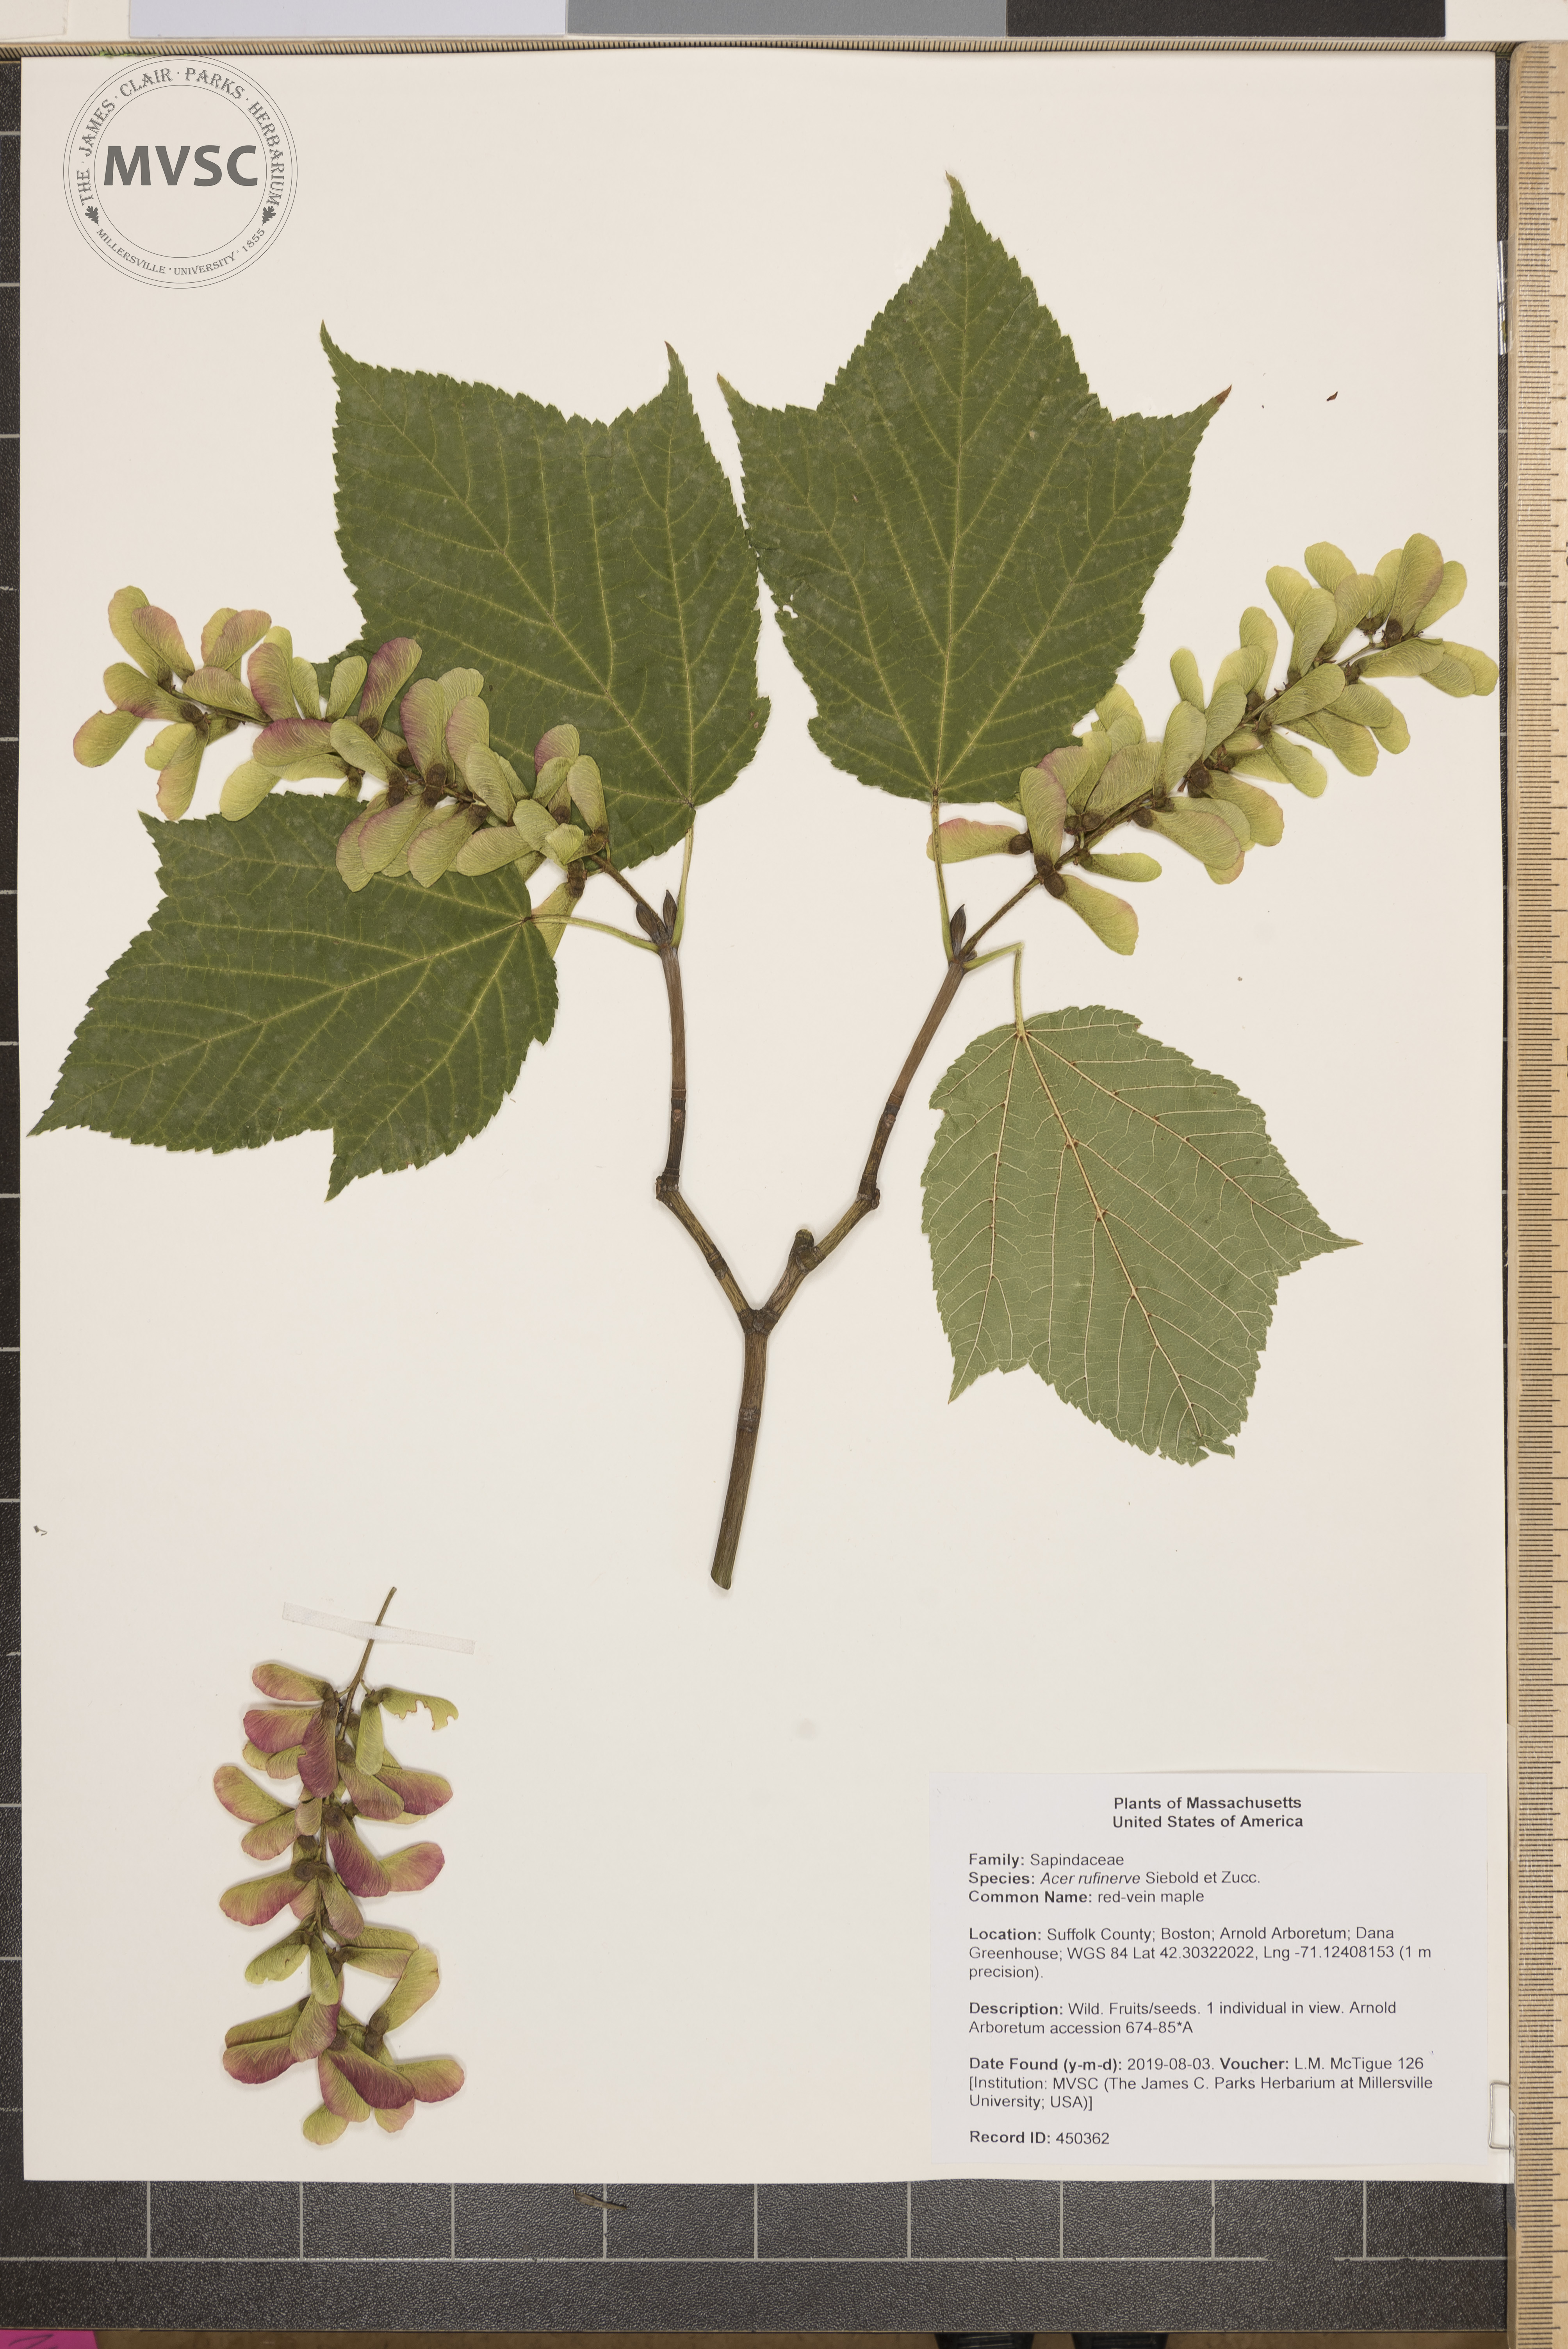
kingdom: Plantae
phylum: Tracheophyta
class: Magnoliopsida
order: Sapindales
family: Sapindaceae
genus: Acer
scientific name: Acer rufinerve
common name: red-vein maple
